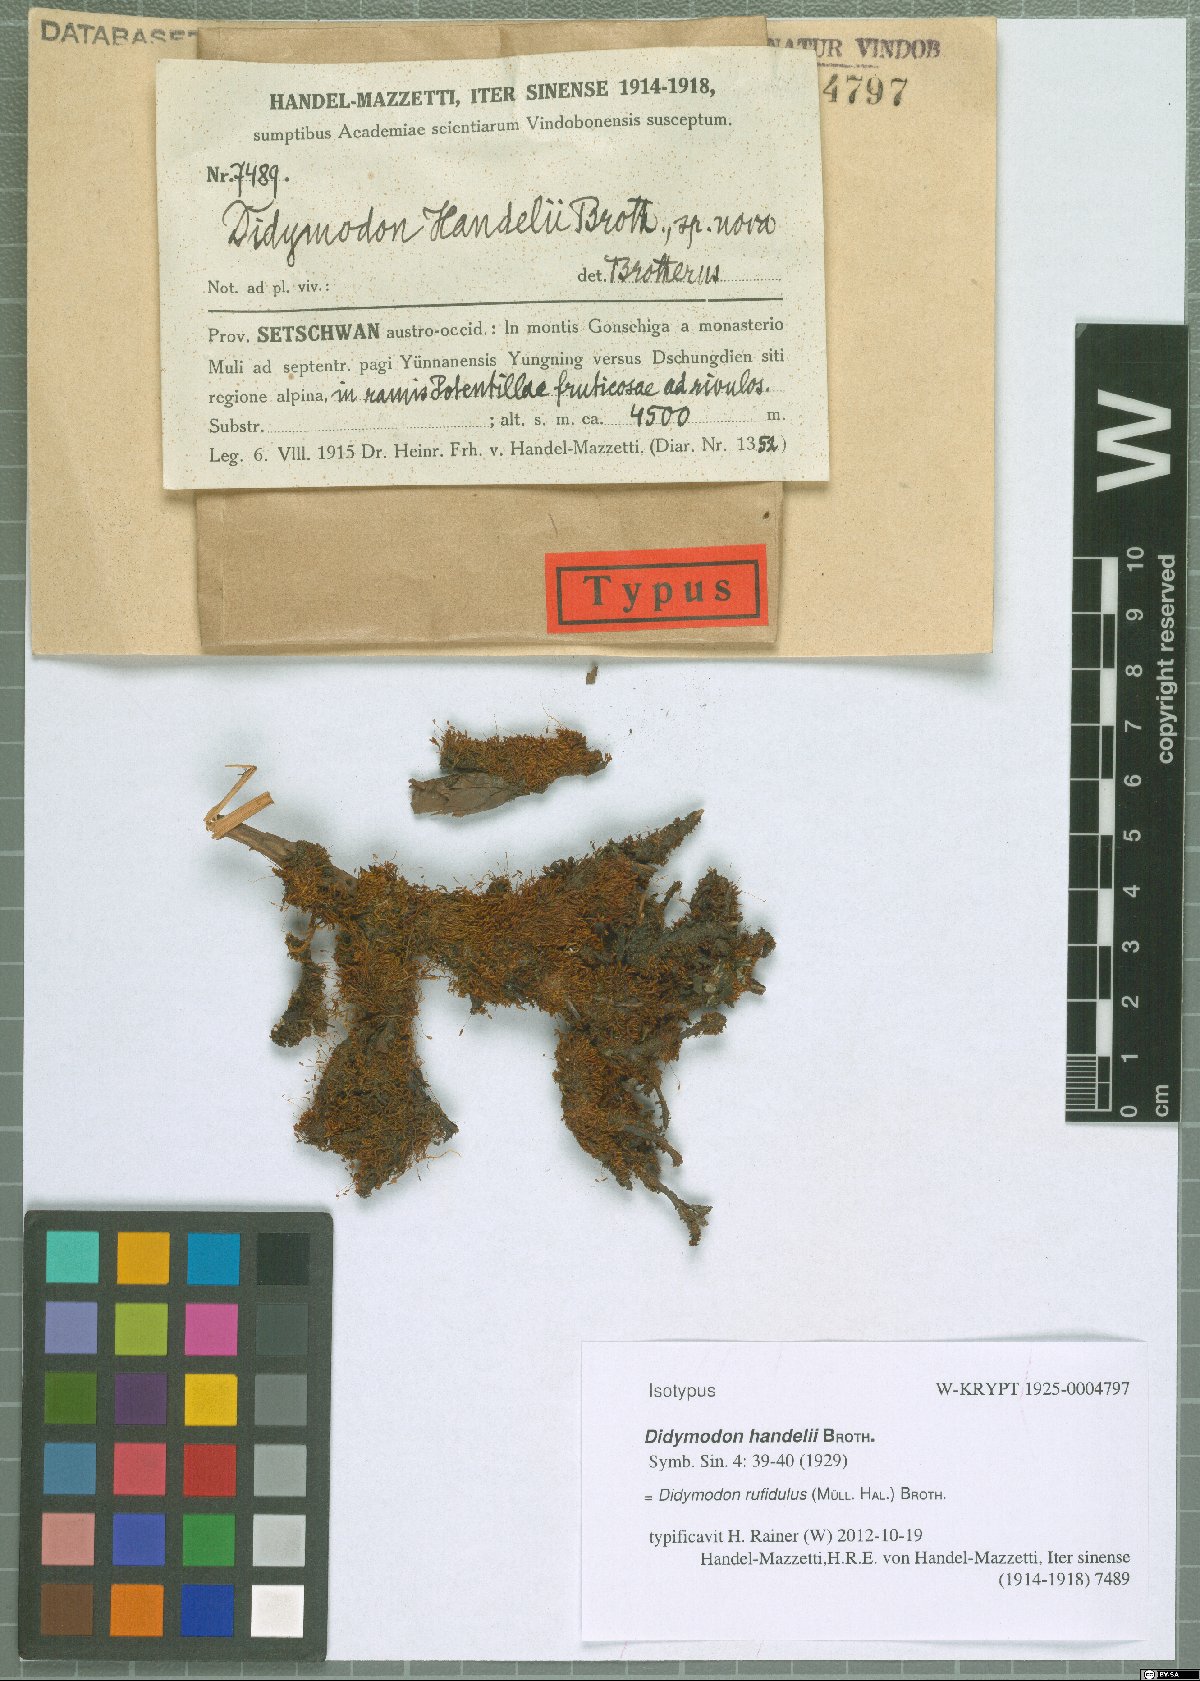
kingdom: Plantae
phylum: Bryophyta
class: Bryopsida
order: Pottiales
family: Pottiaceae
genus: Husnotiella
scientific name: Husnotiella rufidula
